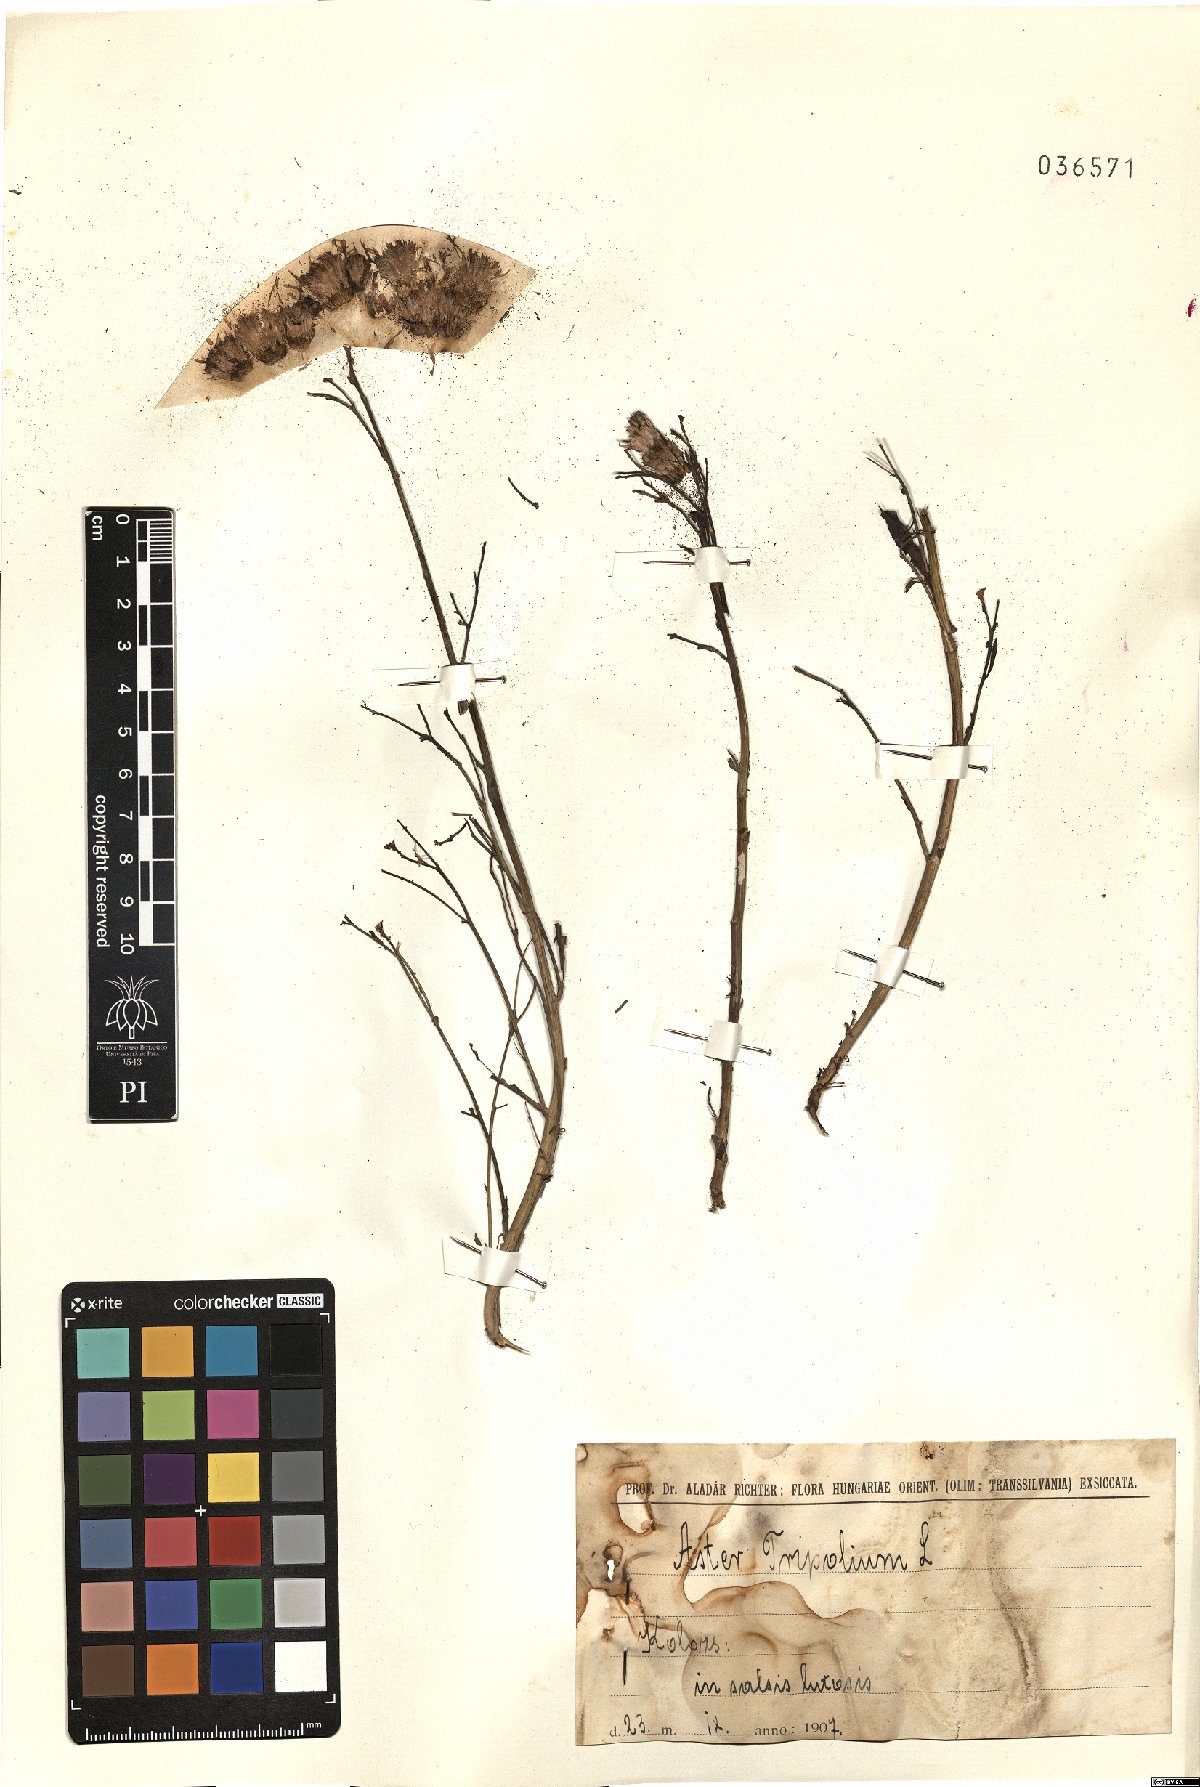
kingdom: Plantae
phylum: Tracheophyta
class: Magnoliopsida
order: Asterales
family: Asteraceae
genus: Tripolium
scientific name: Tripolium pannonicum
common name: Sea aster
